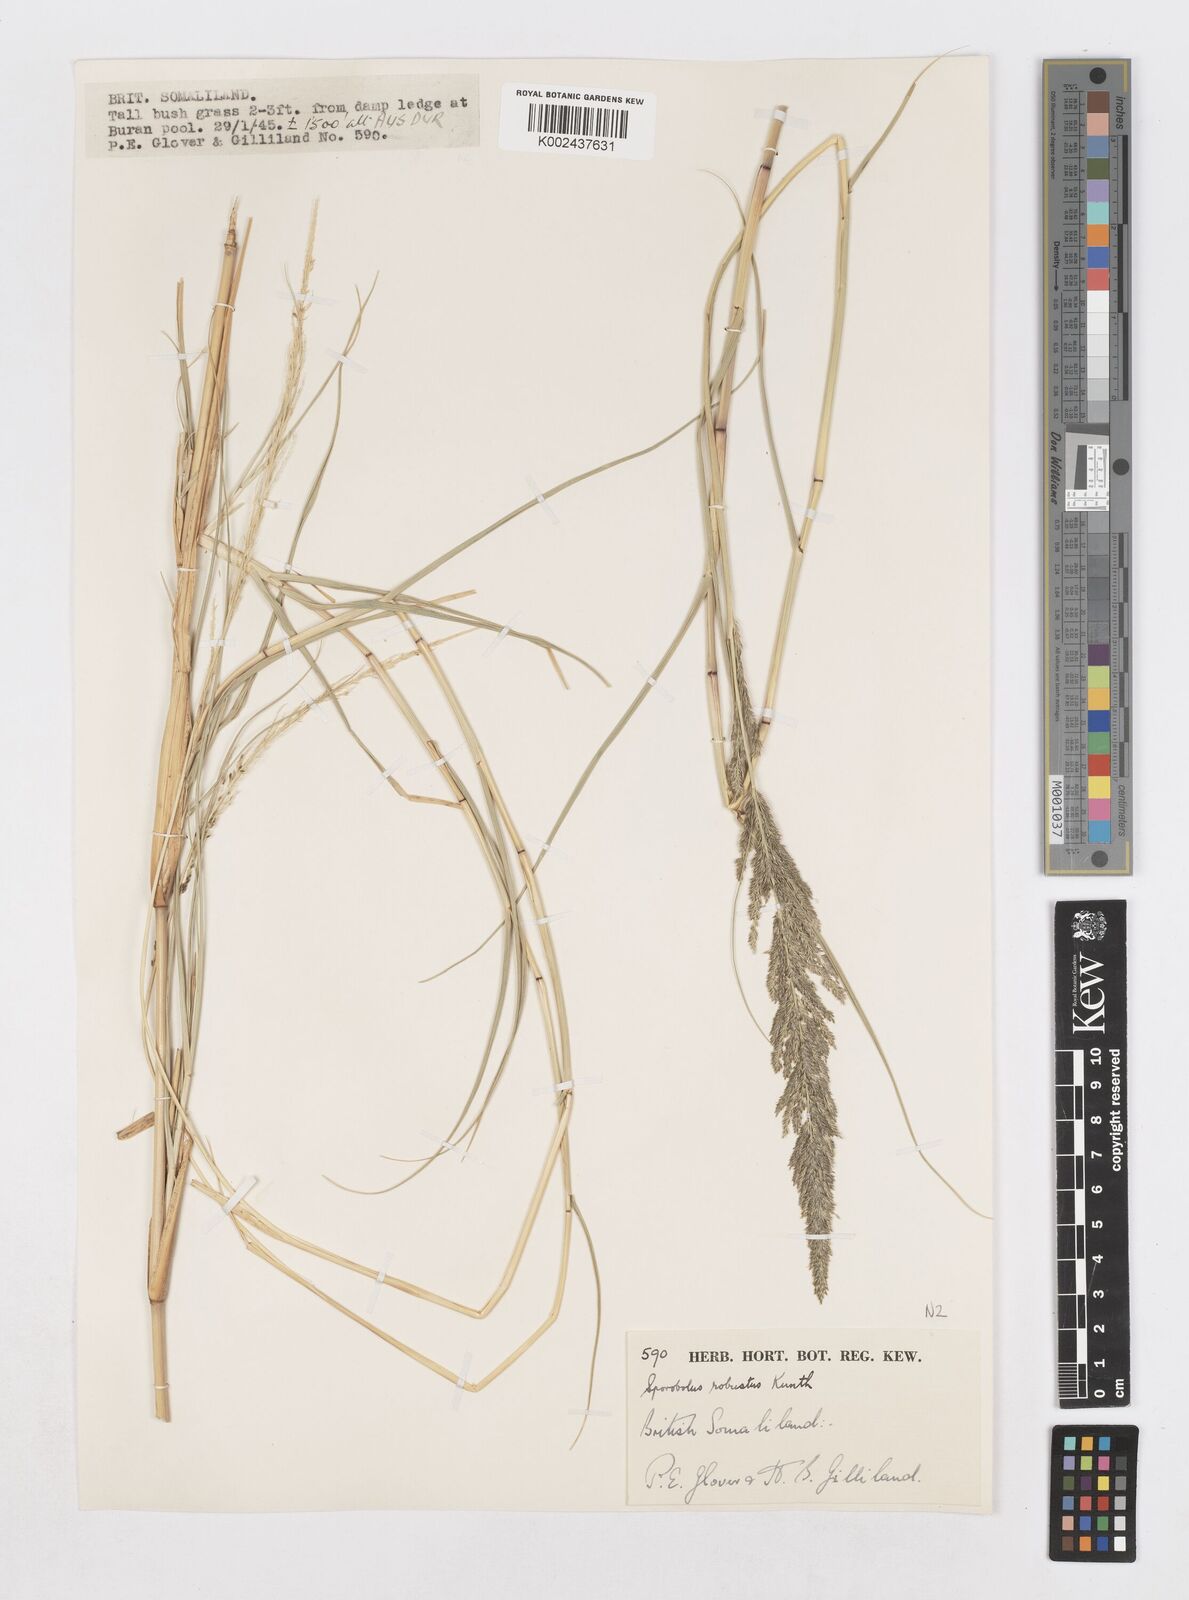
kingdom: Plantae
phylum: Tracheophyta
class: Liliopsida
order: Poales
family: Poaceae
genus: Sporobolus
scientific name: Sporobolus consimilis
